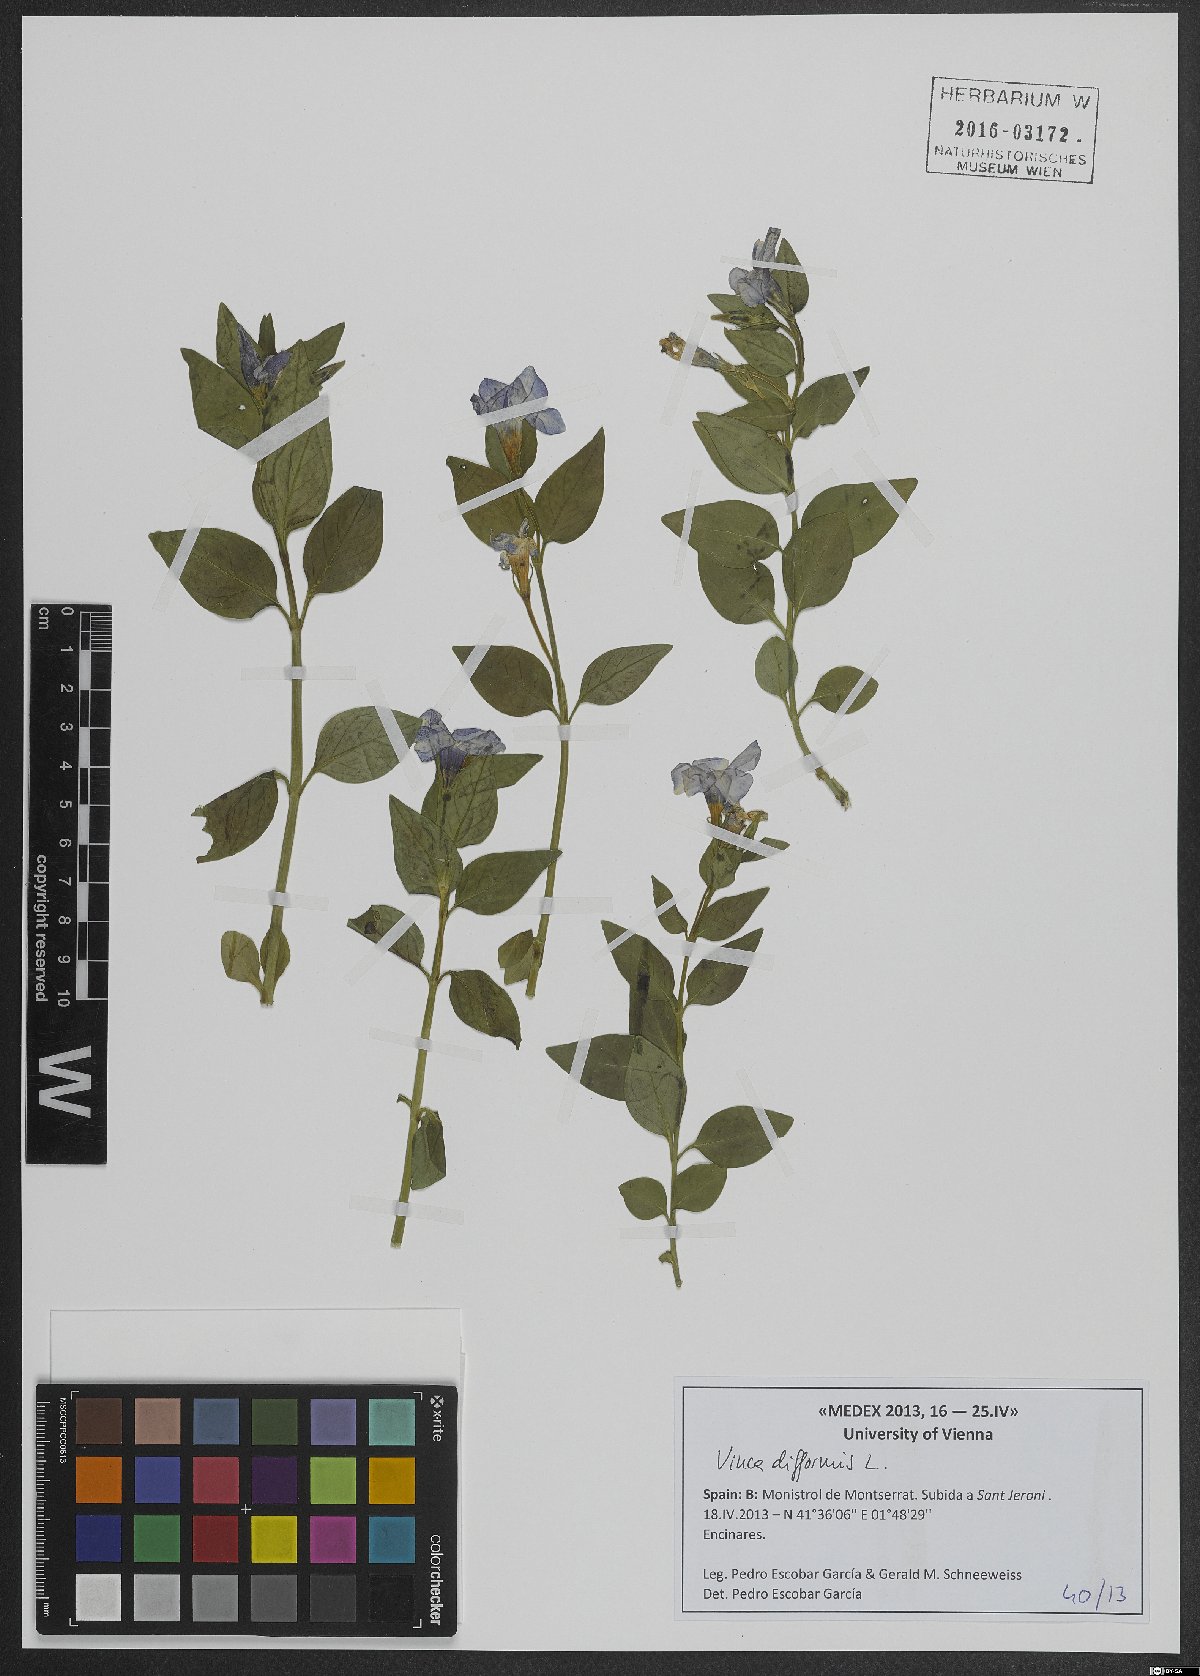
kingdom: Plantae
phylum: Tracheophyta
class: Magnoliopsida
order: Gentianales
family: Apocynaceae
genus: Vinca
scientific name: Vinca difformis
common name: Intermediate periwinkle
